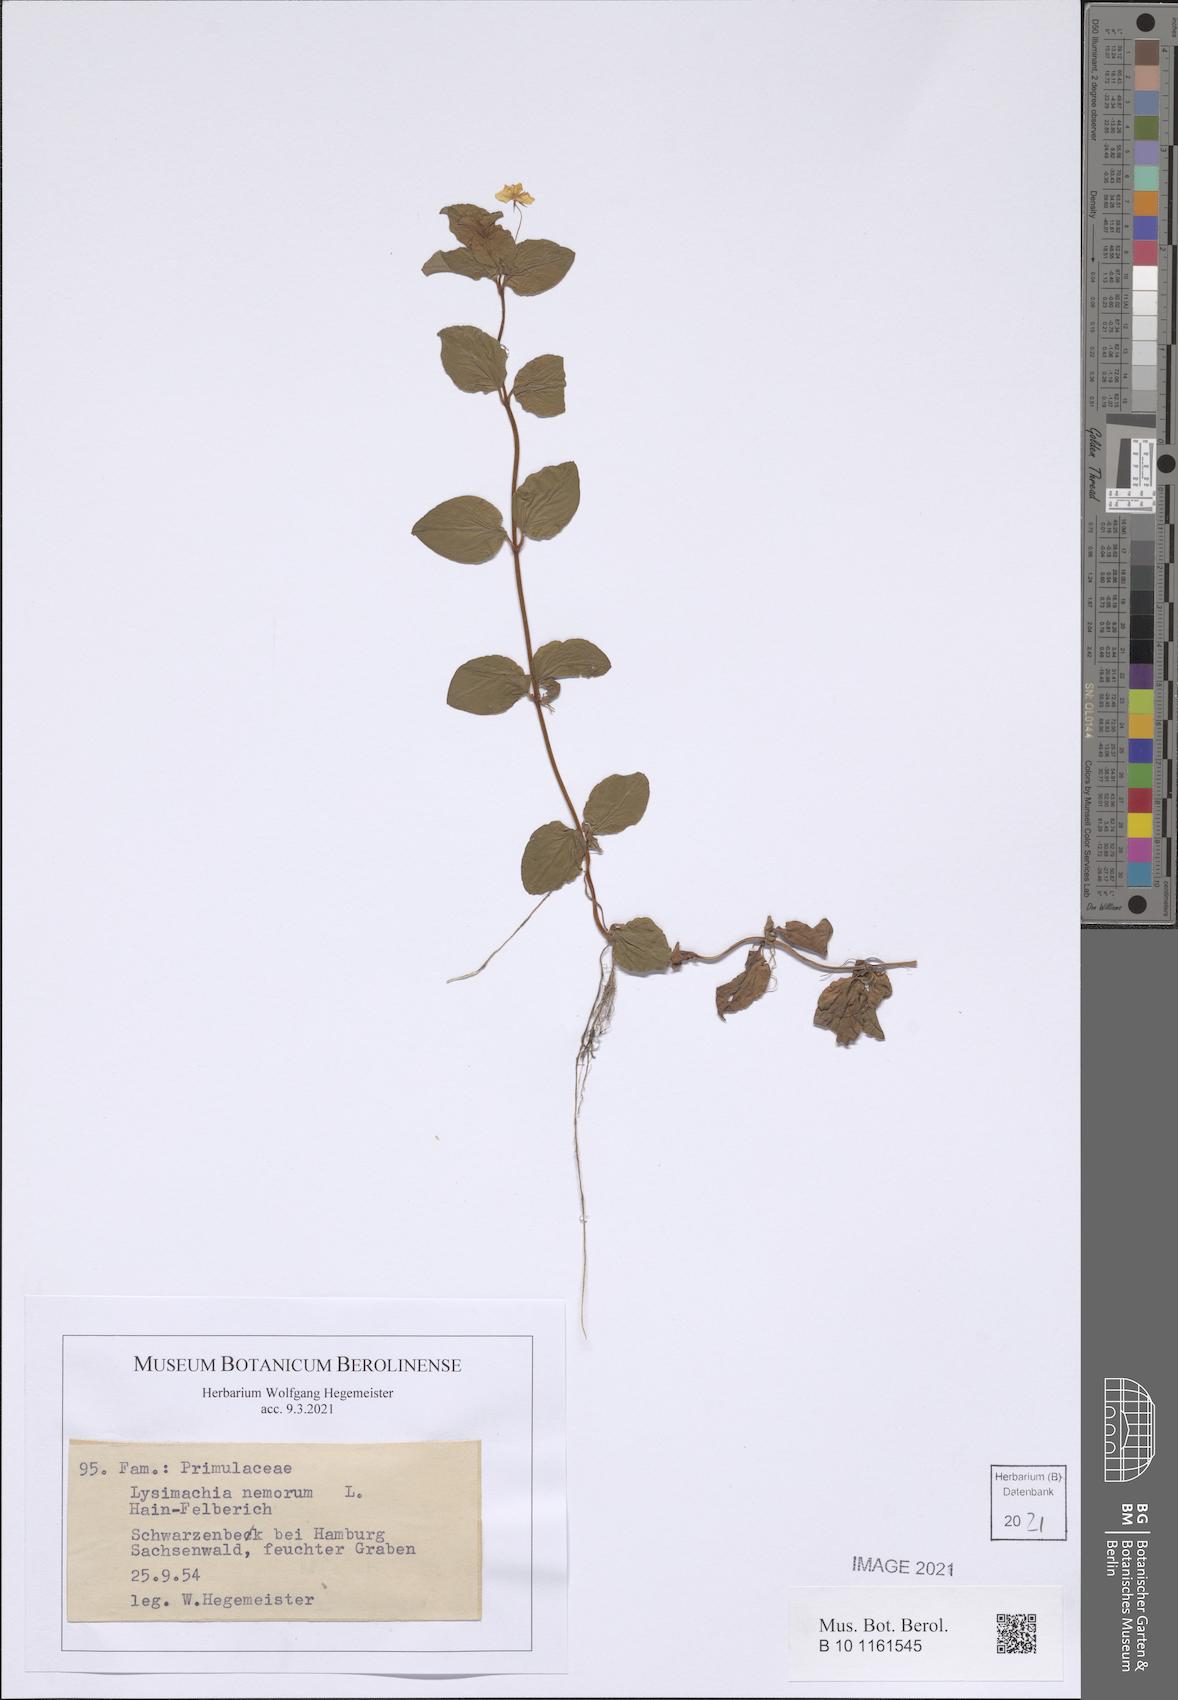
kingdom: Plantae
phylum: Tracheophyta
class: Magnoliopsida
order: Ericales
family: Primulaceae
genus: Lysimachia
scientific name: Lysimachia nemorum
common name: Yellow pimpernel
